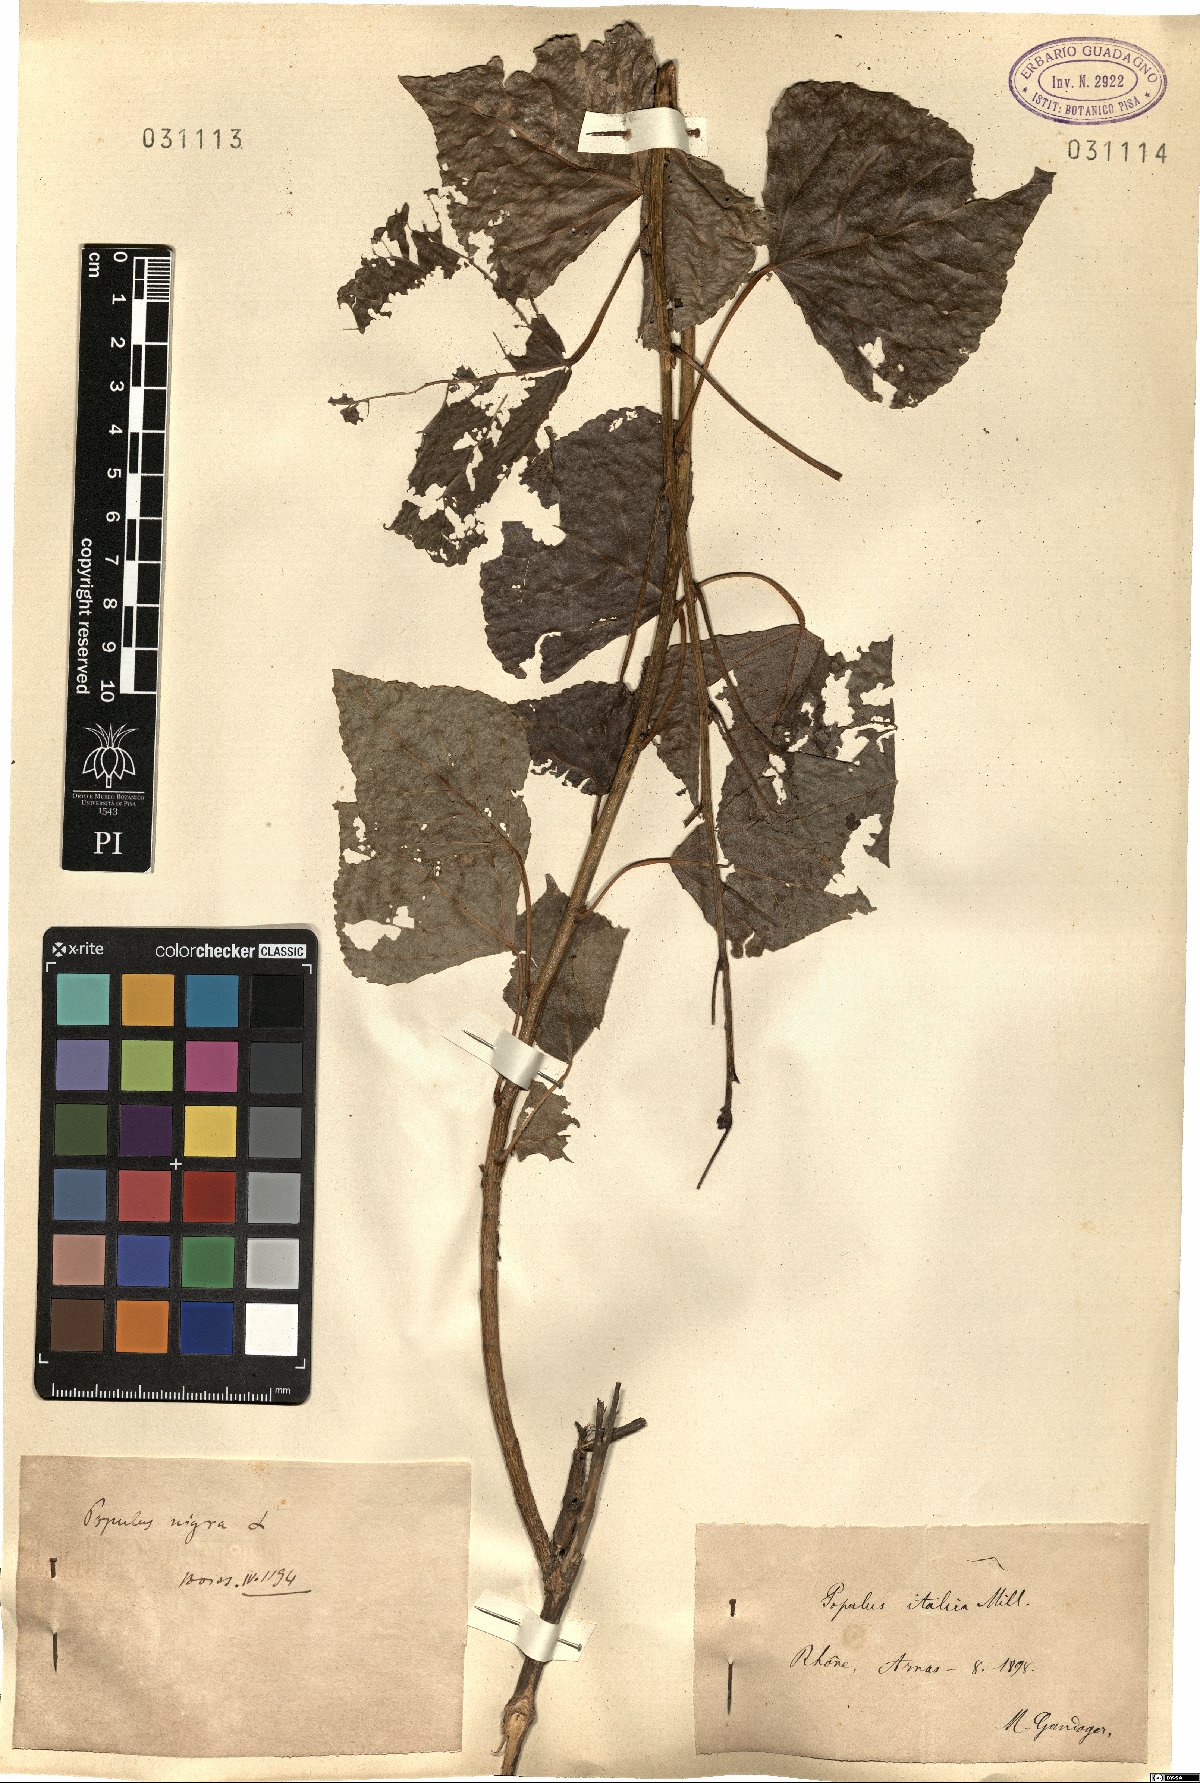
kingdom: Plantae
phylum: Tracheophyta
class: Magnoliopsida
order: Malpighiales
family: Salicaceae
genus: Populus
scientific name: Populus nigra
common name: Black poplar
